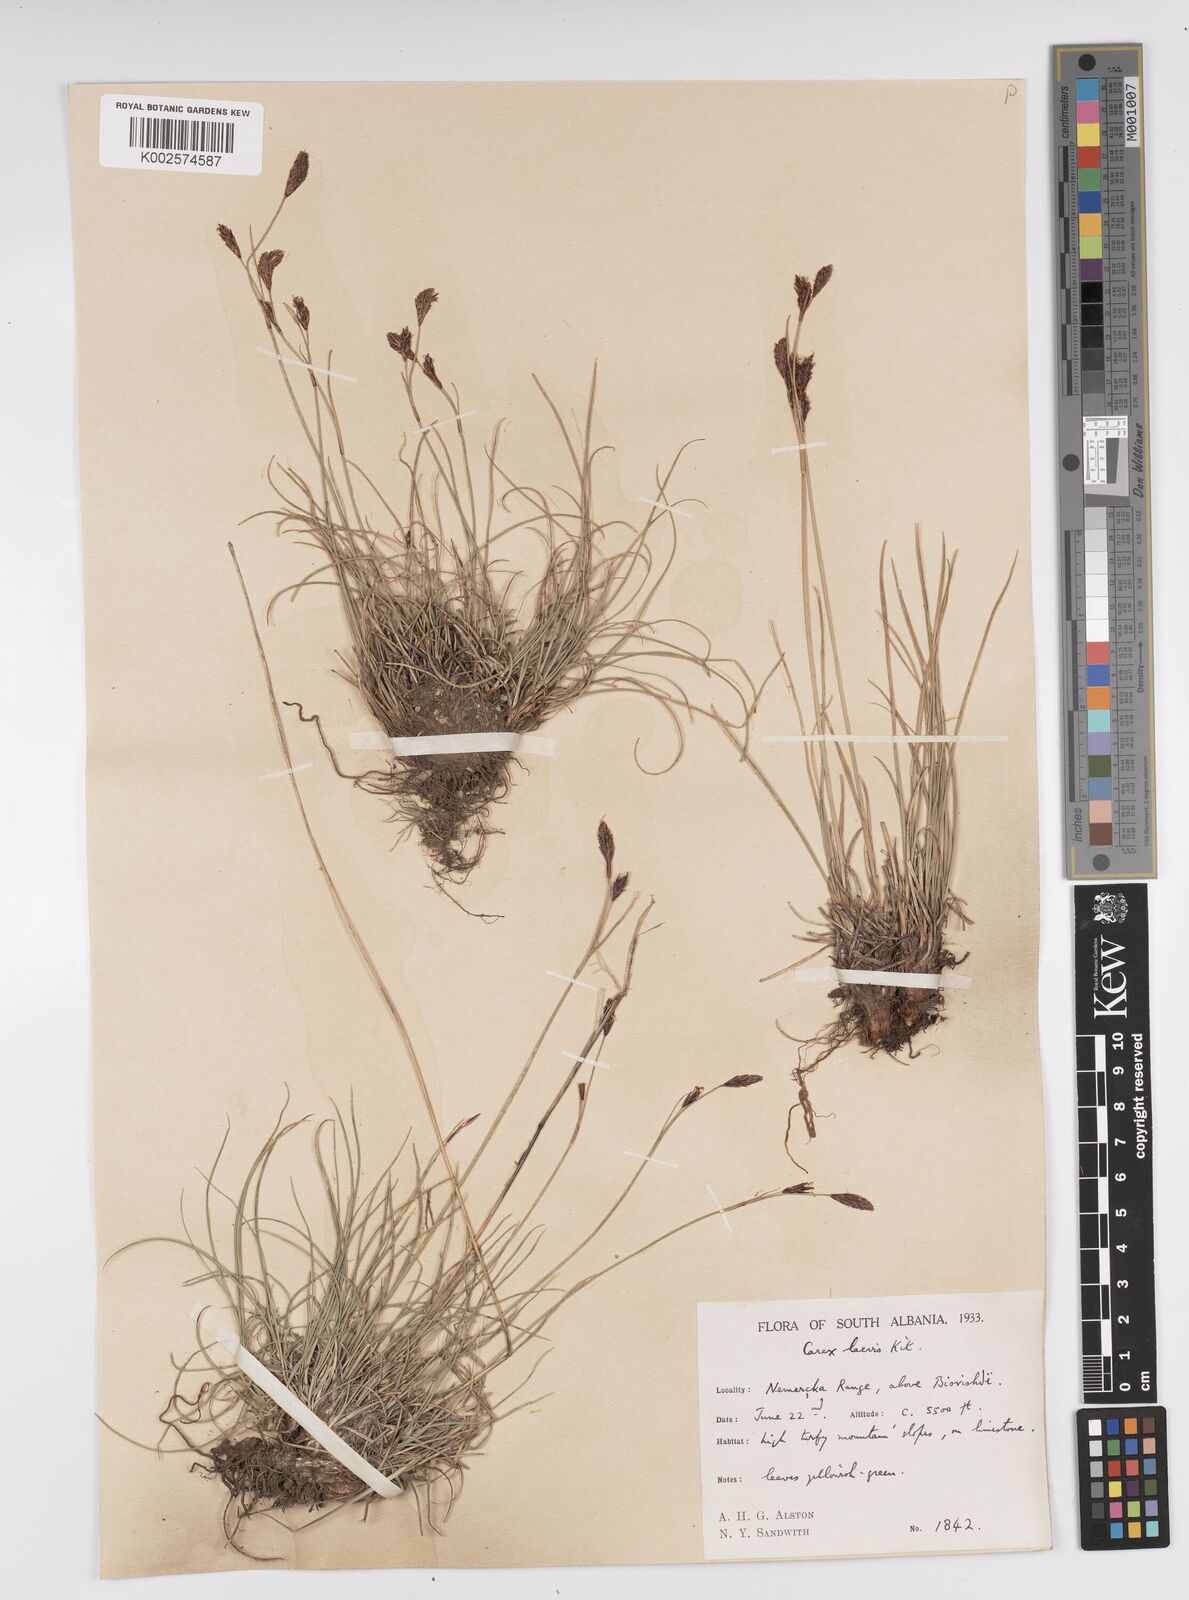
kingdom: Plantae
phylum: Tracheophyta
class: Liliopsida
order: Poales
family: Cyperaceae
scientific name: Cyperaceae
